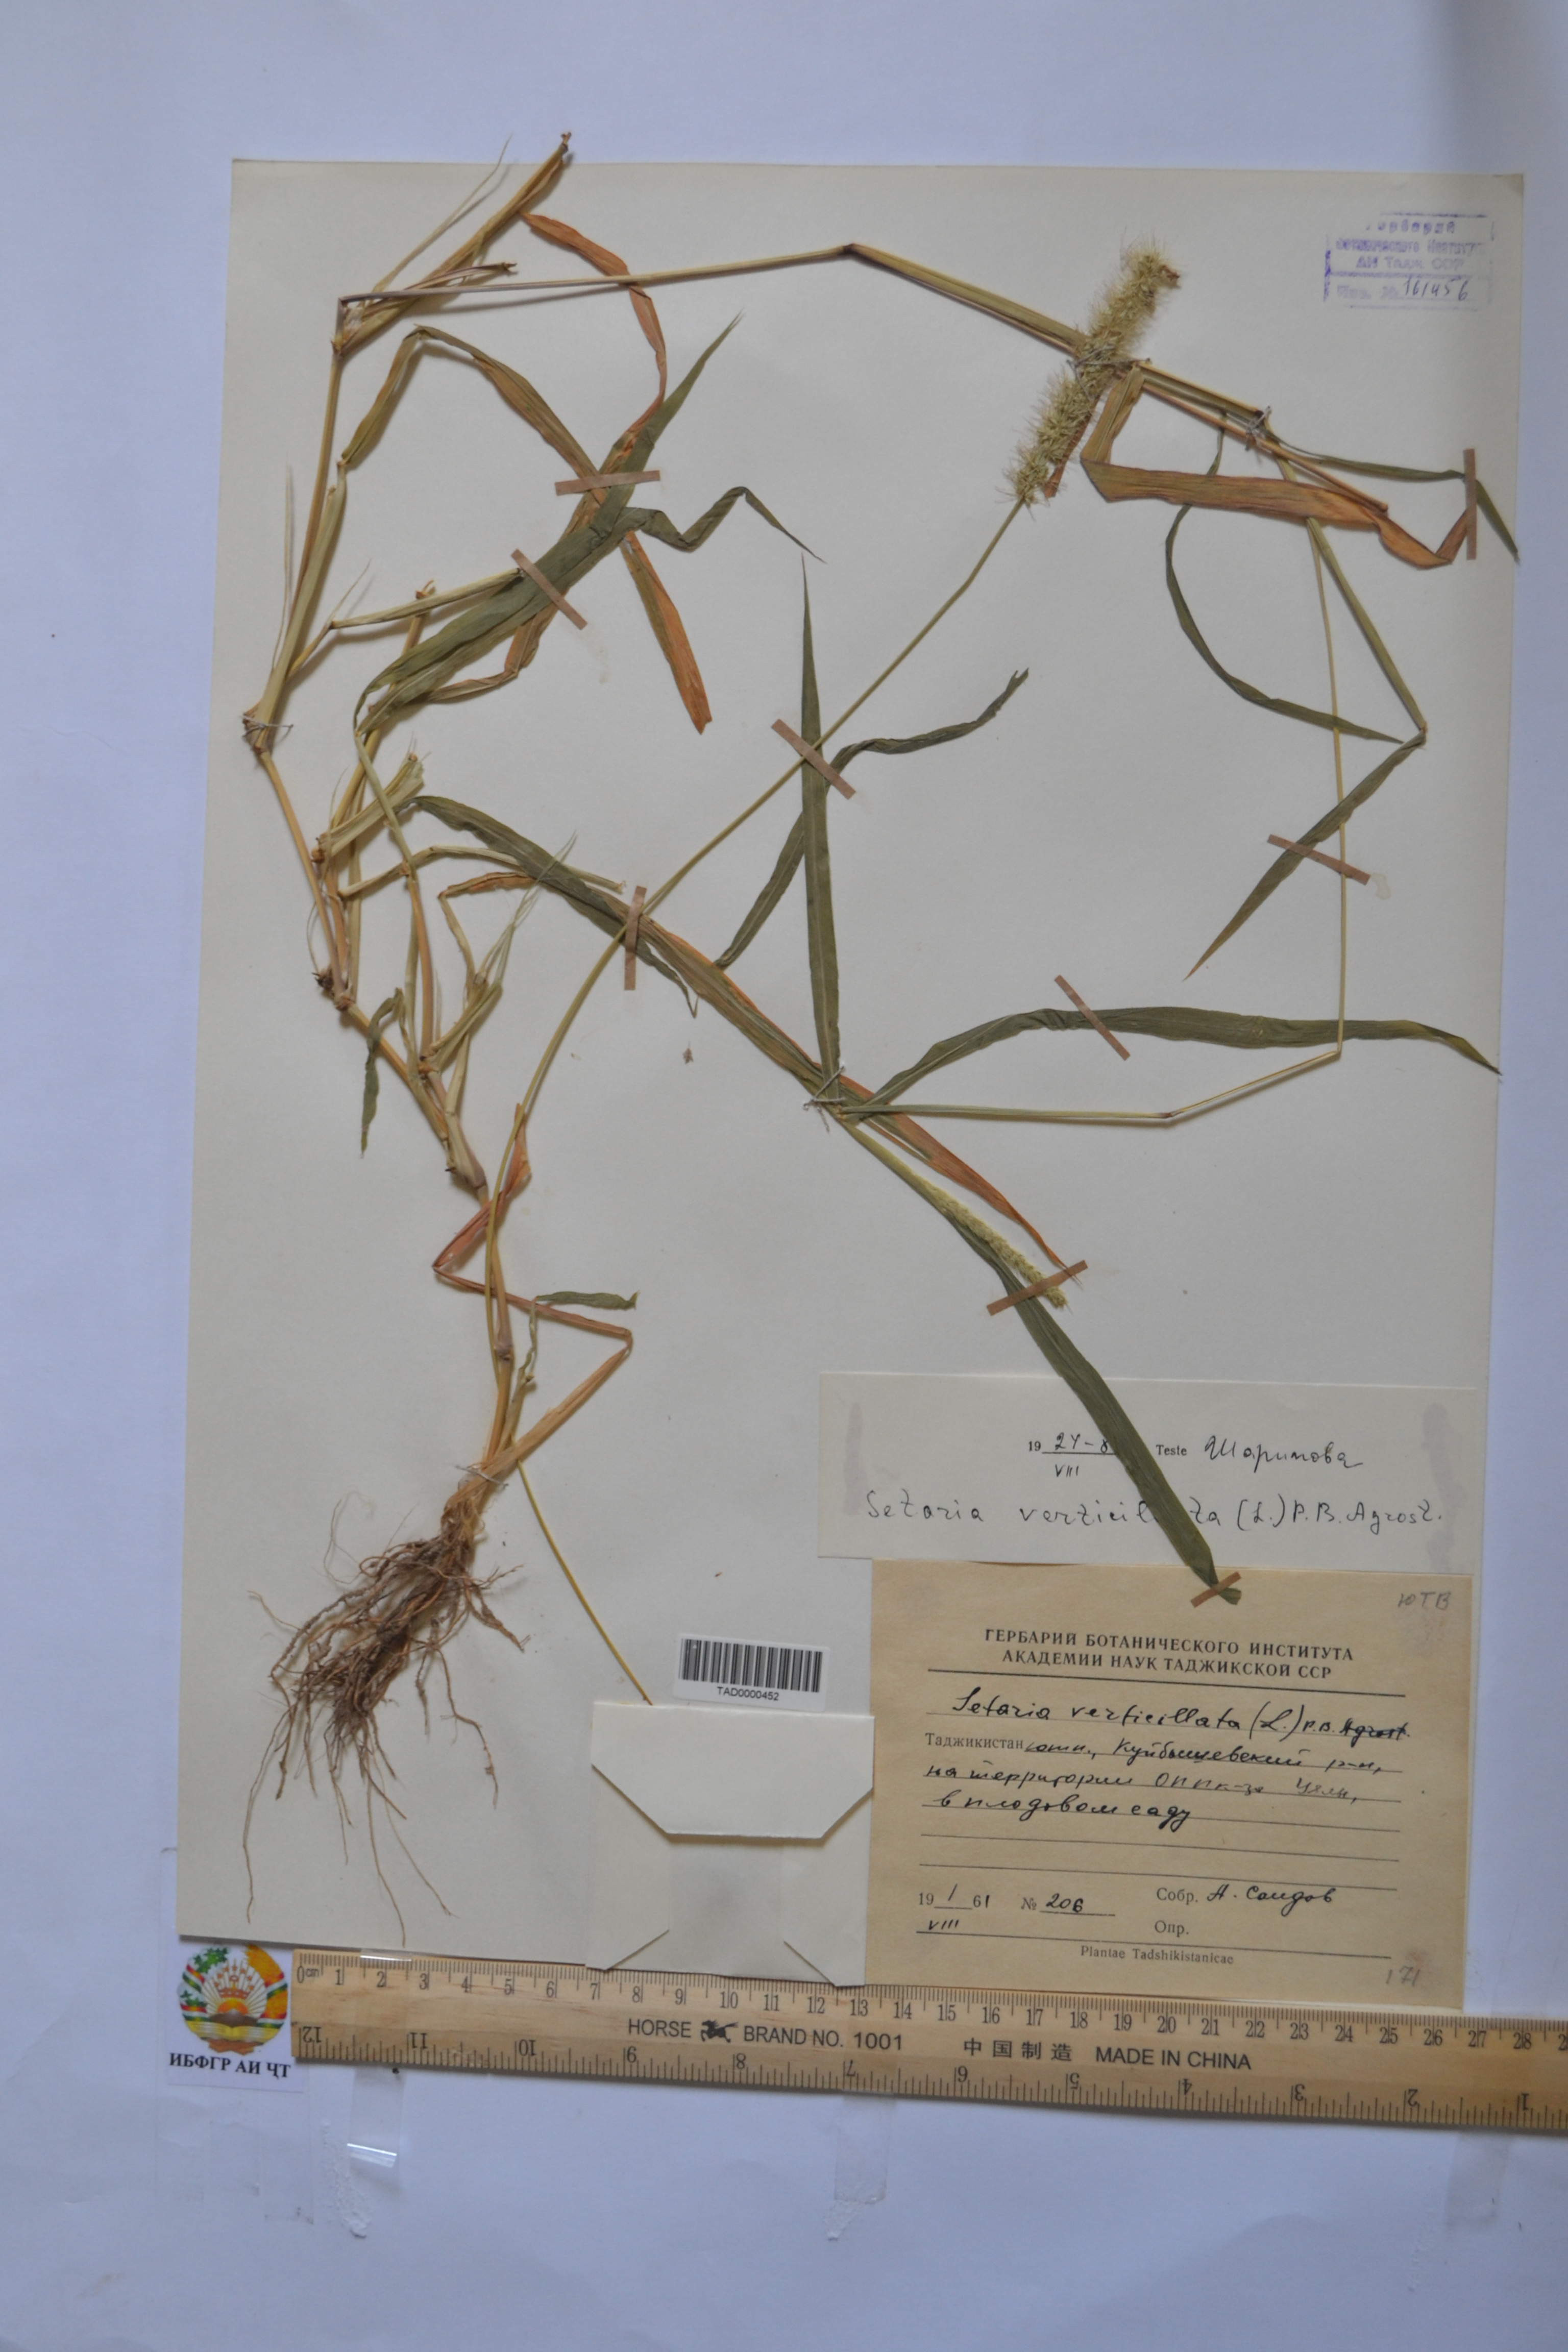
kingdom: Plantae
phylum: Tracheophyta
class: Liliopsida
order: Poales
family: Poaceae
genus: Setaria
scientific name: Setaria verticillata
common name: Hooked bristlegrass
